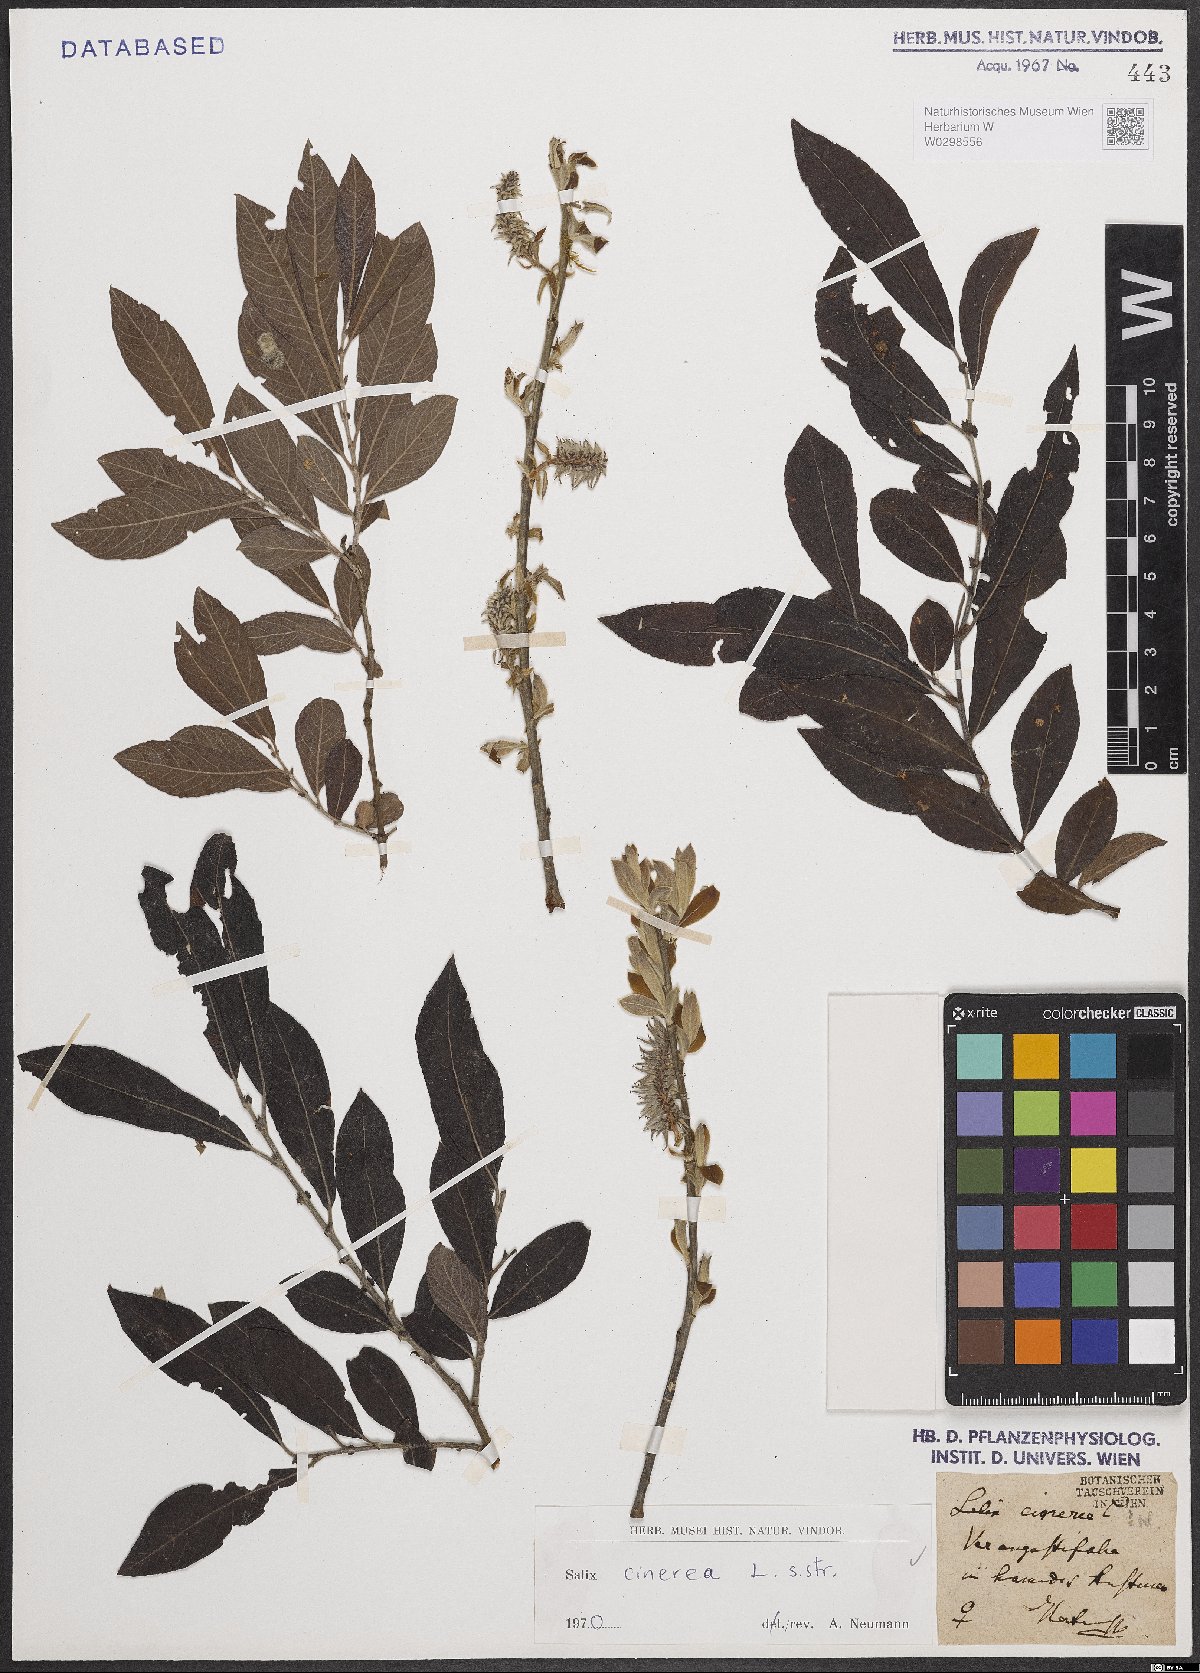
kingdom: Plantae
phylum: Tracheophyta
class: Magnoliopsida
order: Malpighiales
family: Salicaceae
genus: Salix
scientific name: Salix cinerea
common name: Common sallow
